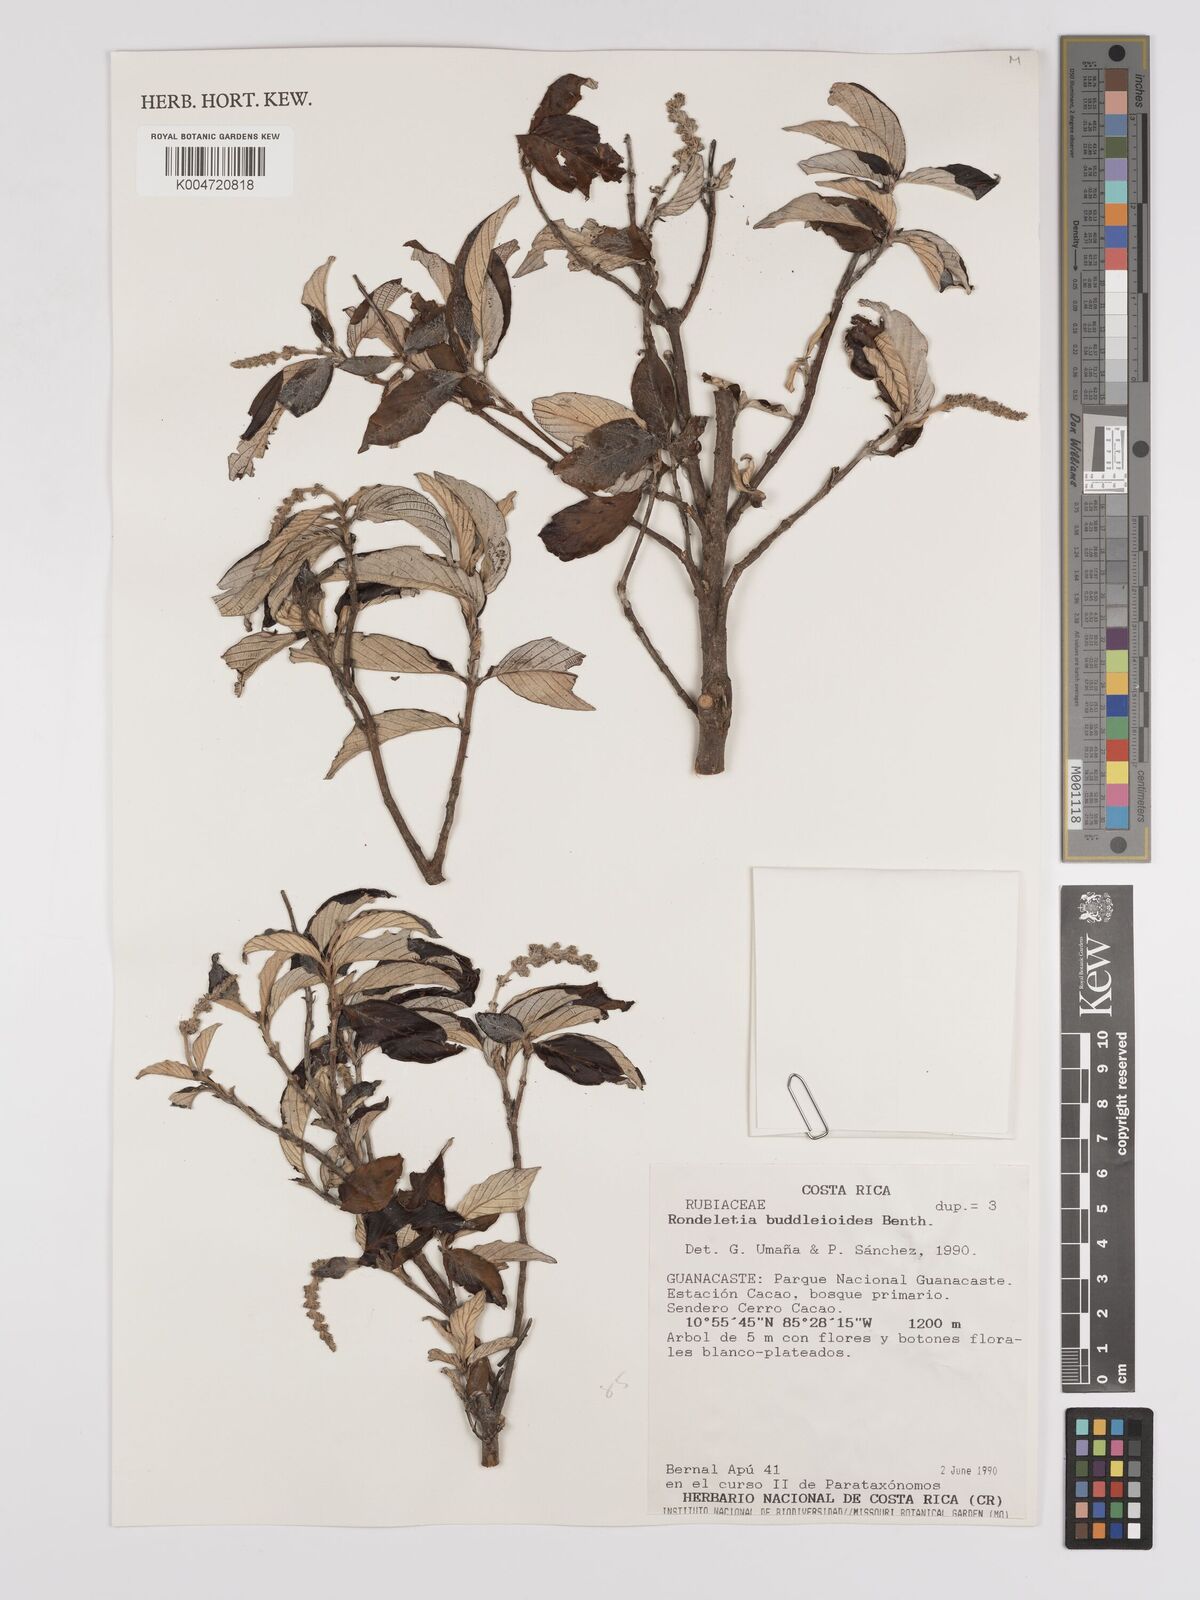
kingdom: Plantae
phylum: Tracheophyta
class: Magnoliopsida
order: Gentianales
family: Rubiaceae
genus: Arachnothryx
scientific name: Arachnothryx buddleioides
